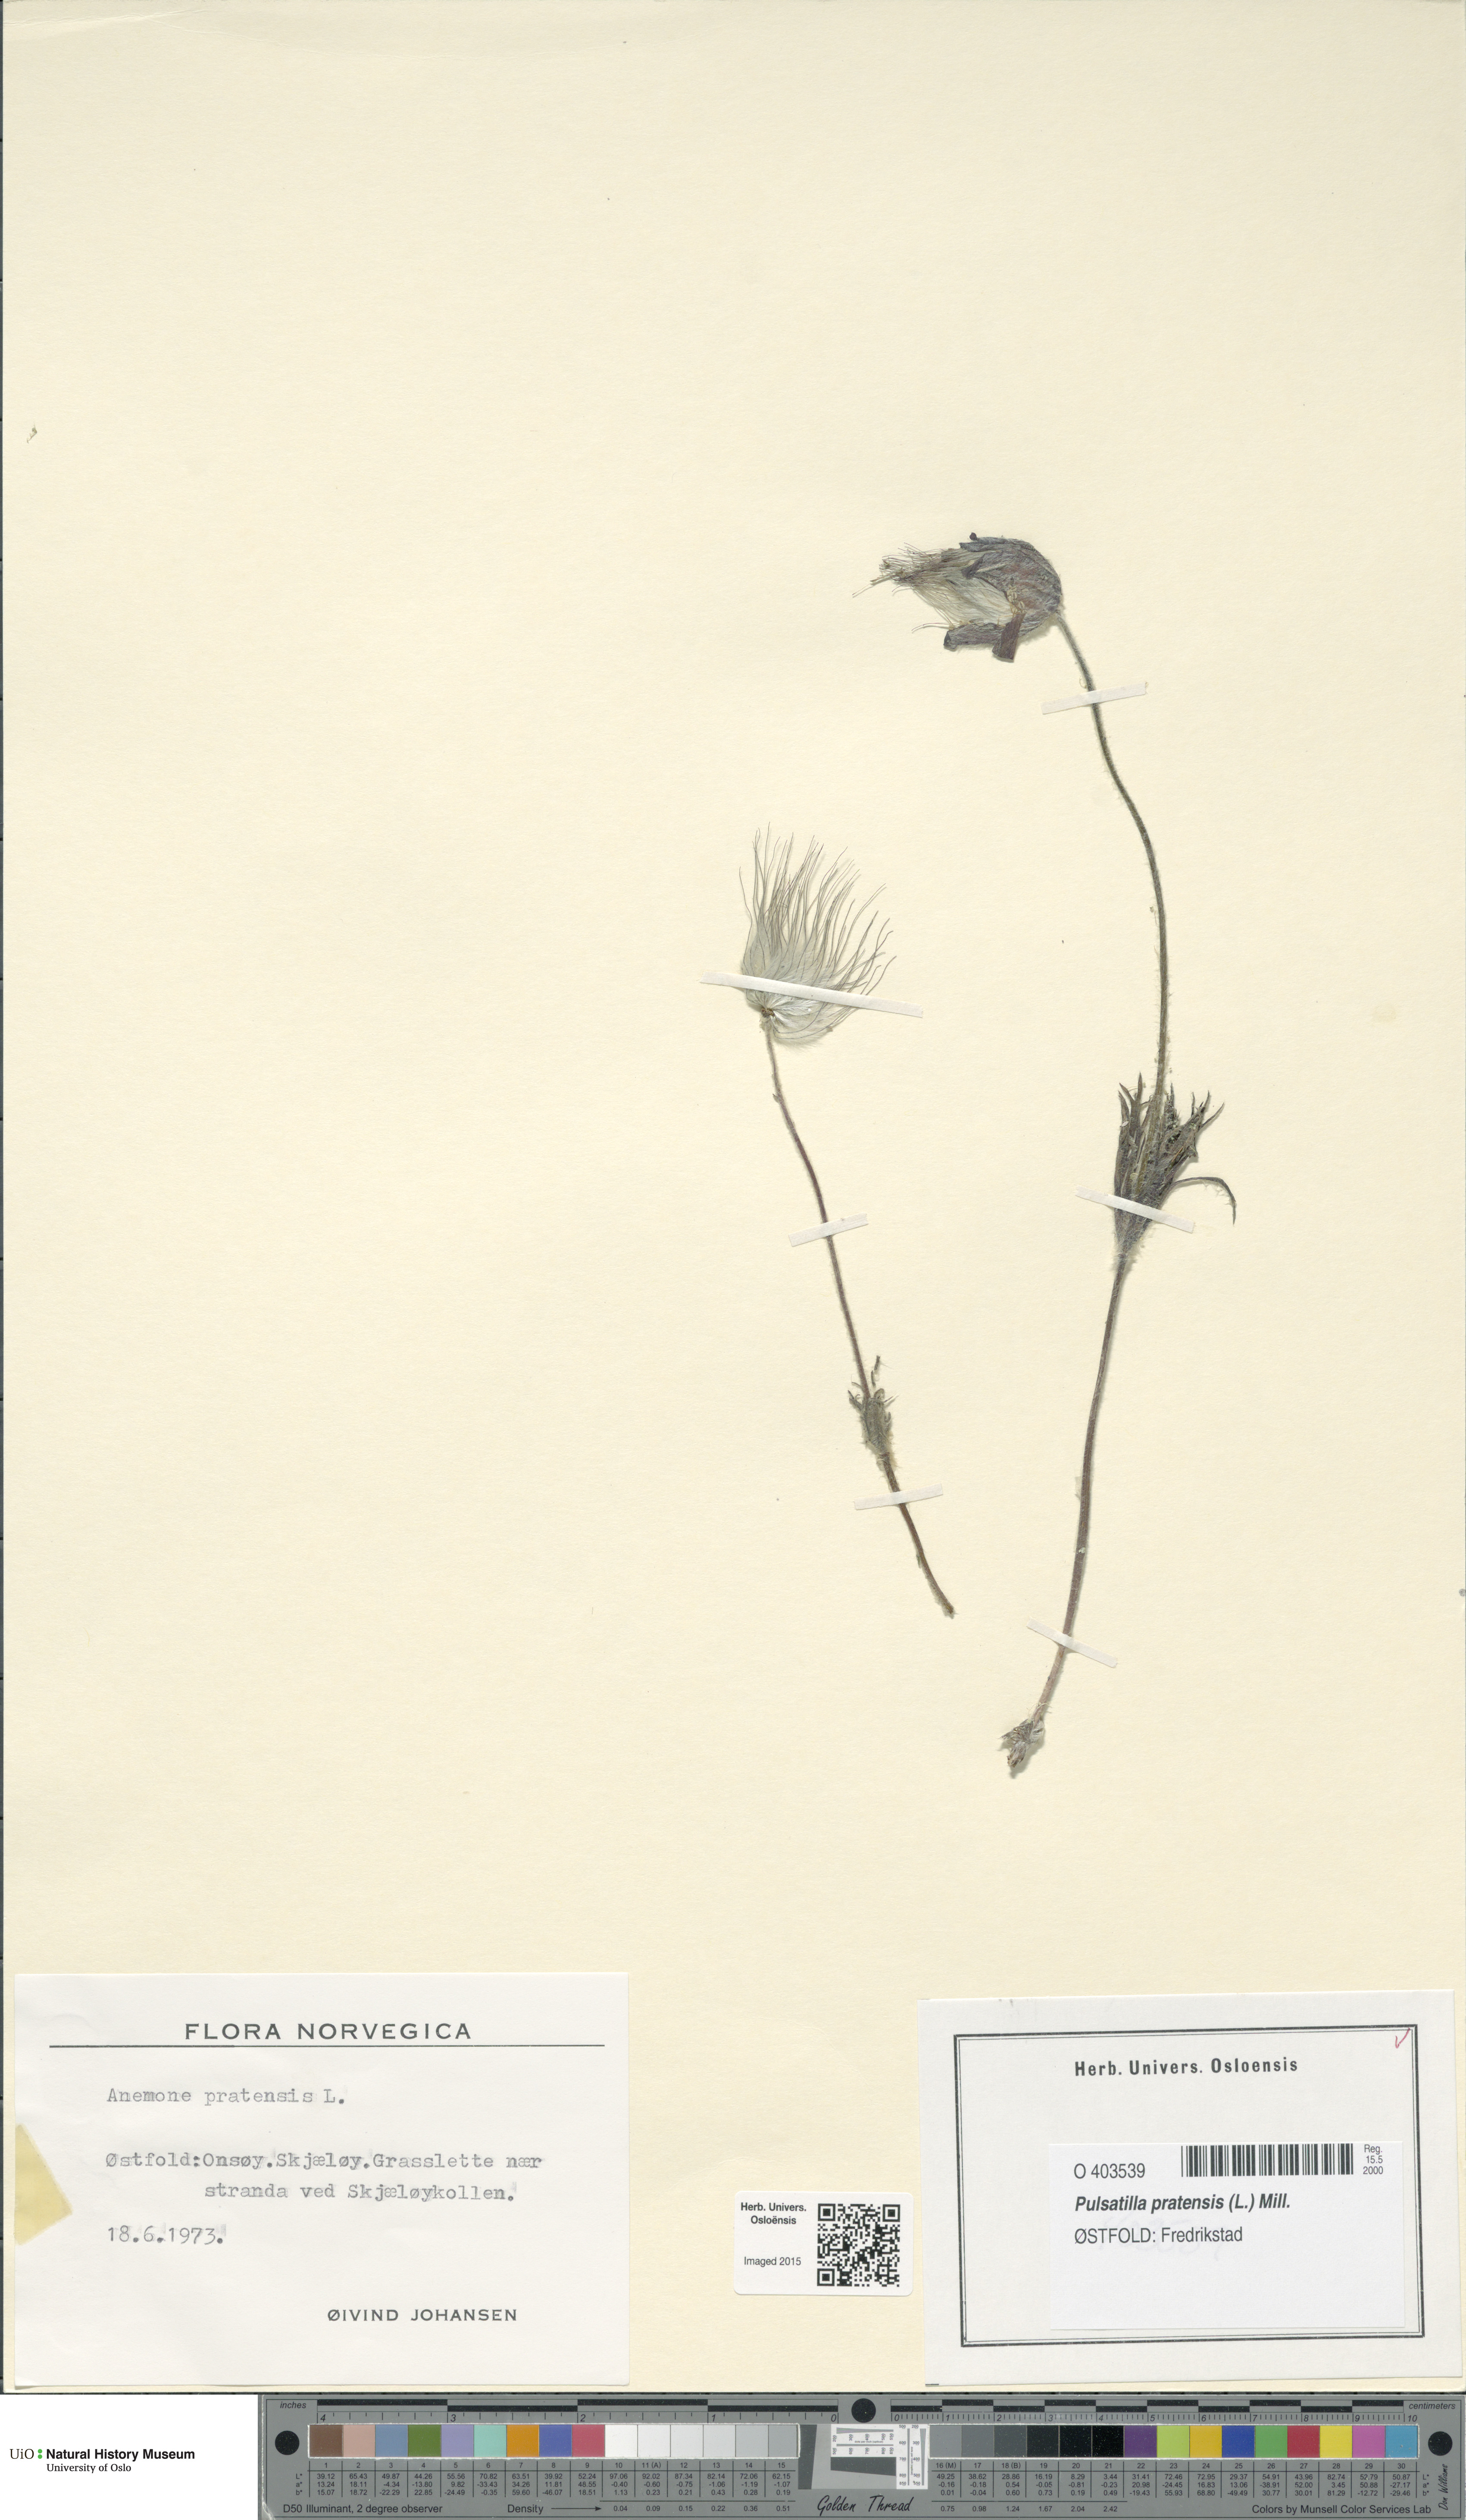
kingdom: Plantae
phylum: Tracheophyta
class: Magnoliopsida
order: Ranunculales
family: Ranunculaceae
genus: Pulsatilla
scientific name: Pulsatilla pratensis
